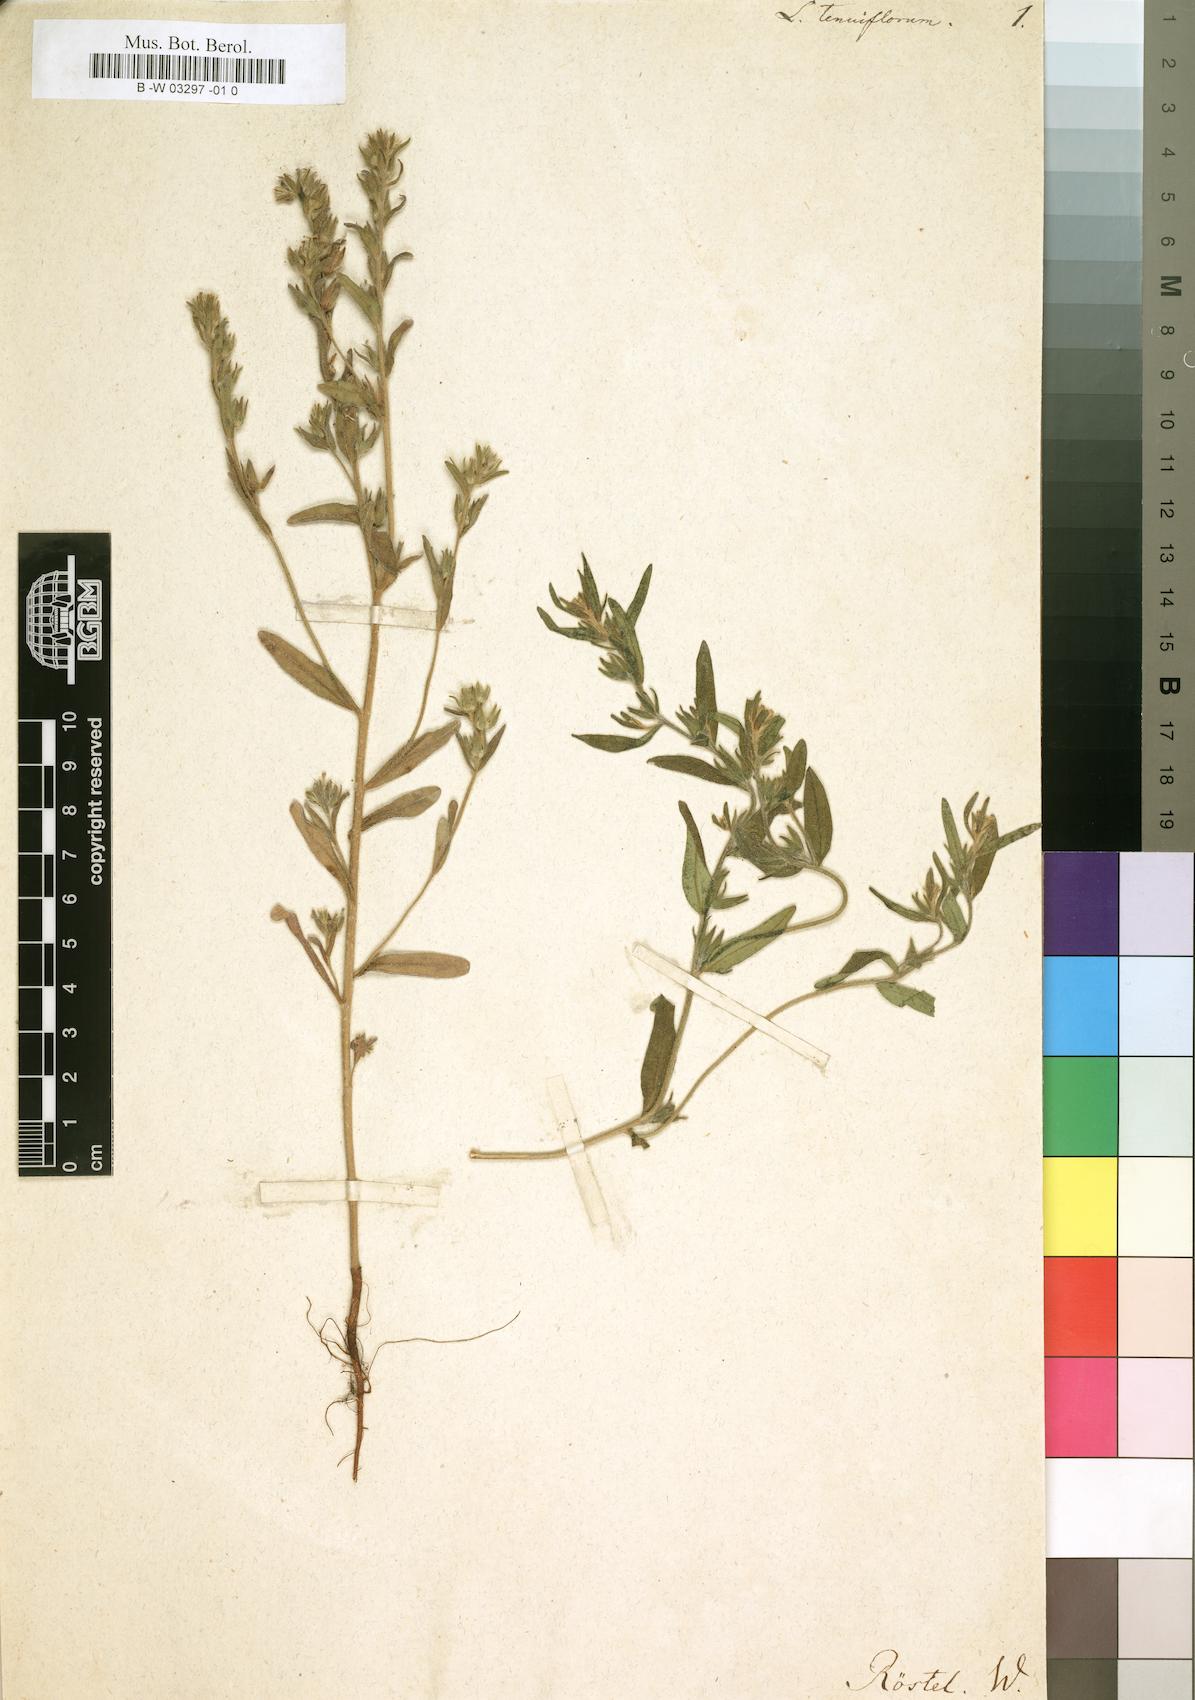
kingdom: Plantae
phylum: Tracheophyta
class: Magnoliopsida
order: Boraginales
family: Boraginaceae
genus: Buglossoides
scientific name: Buglossoides
